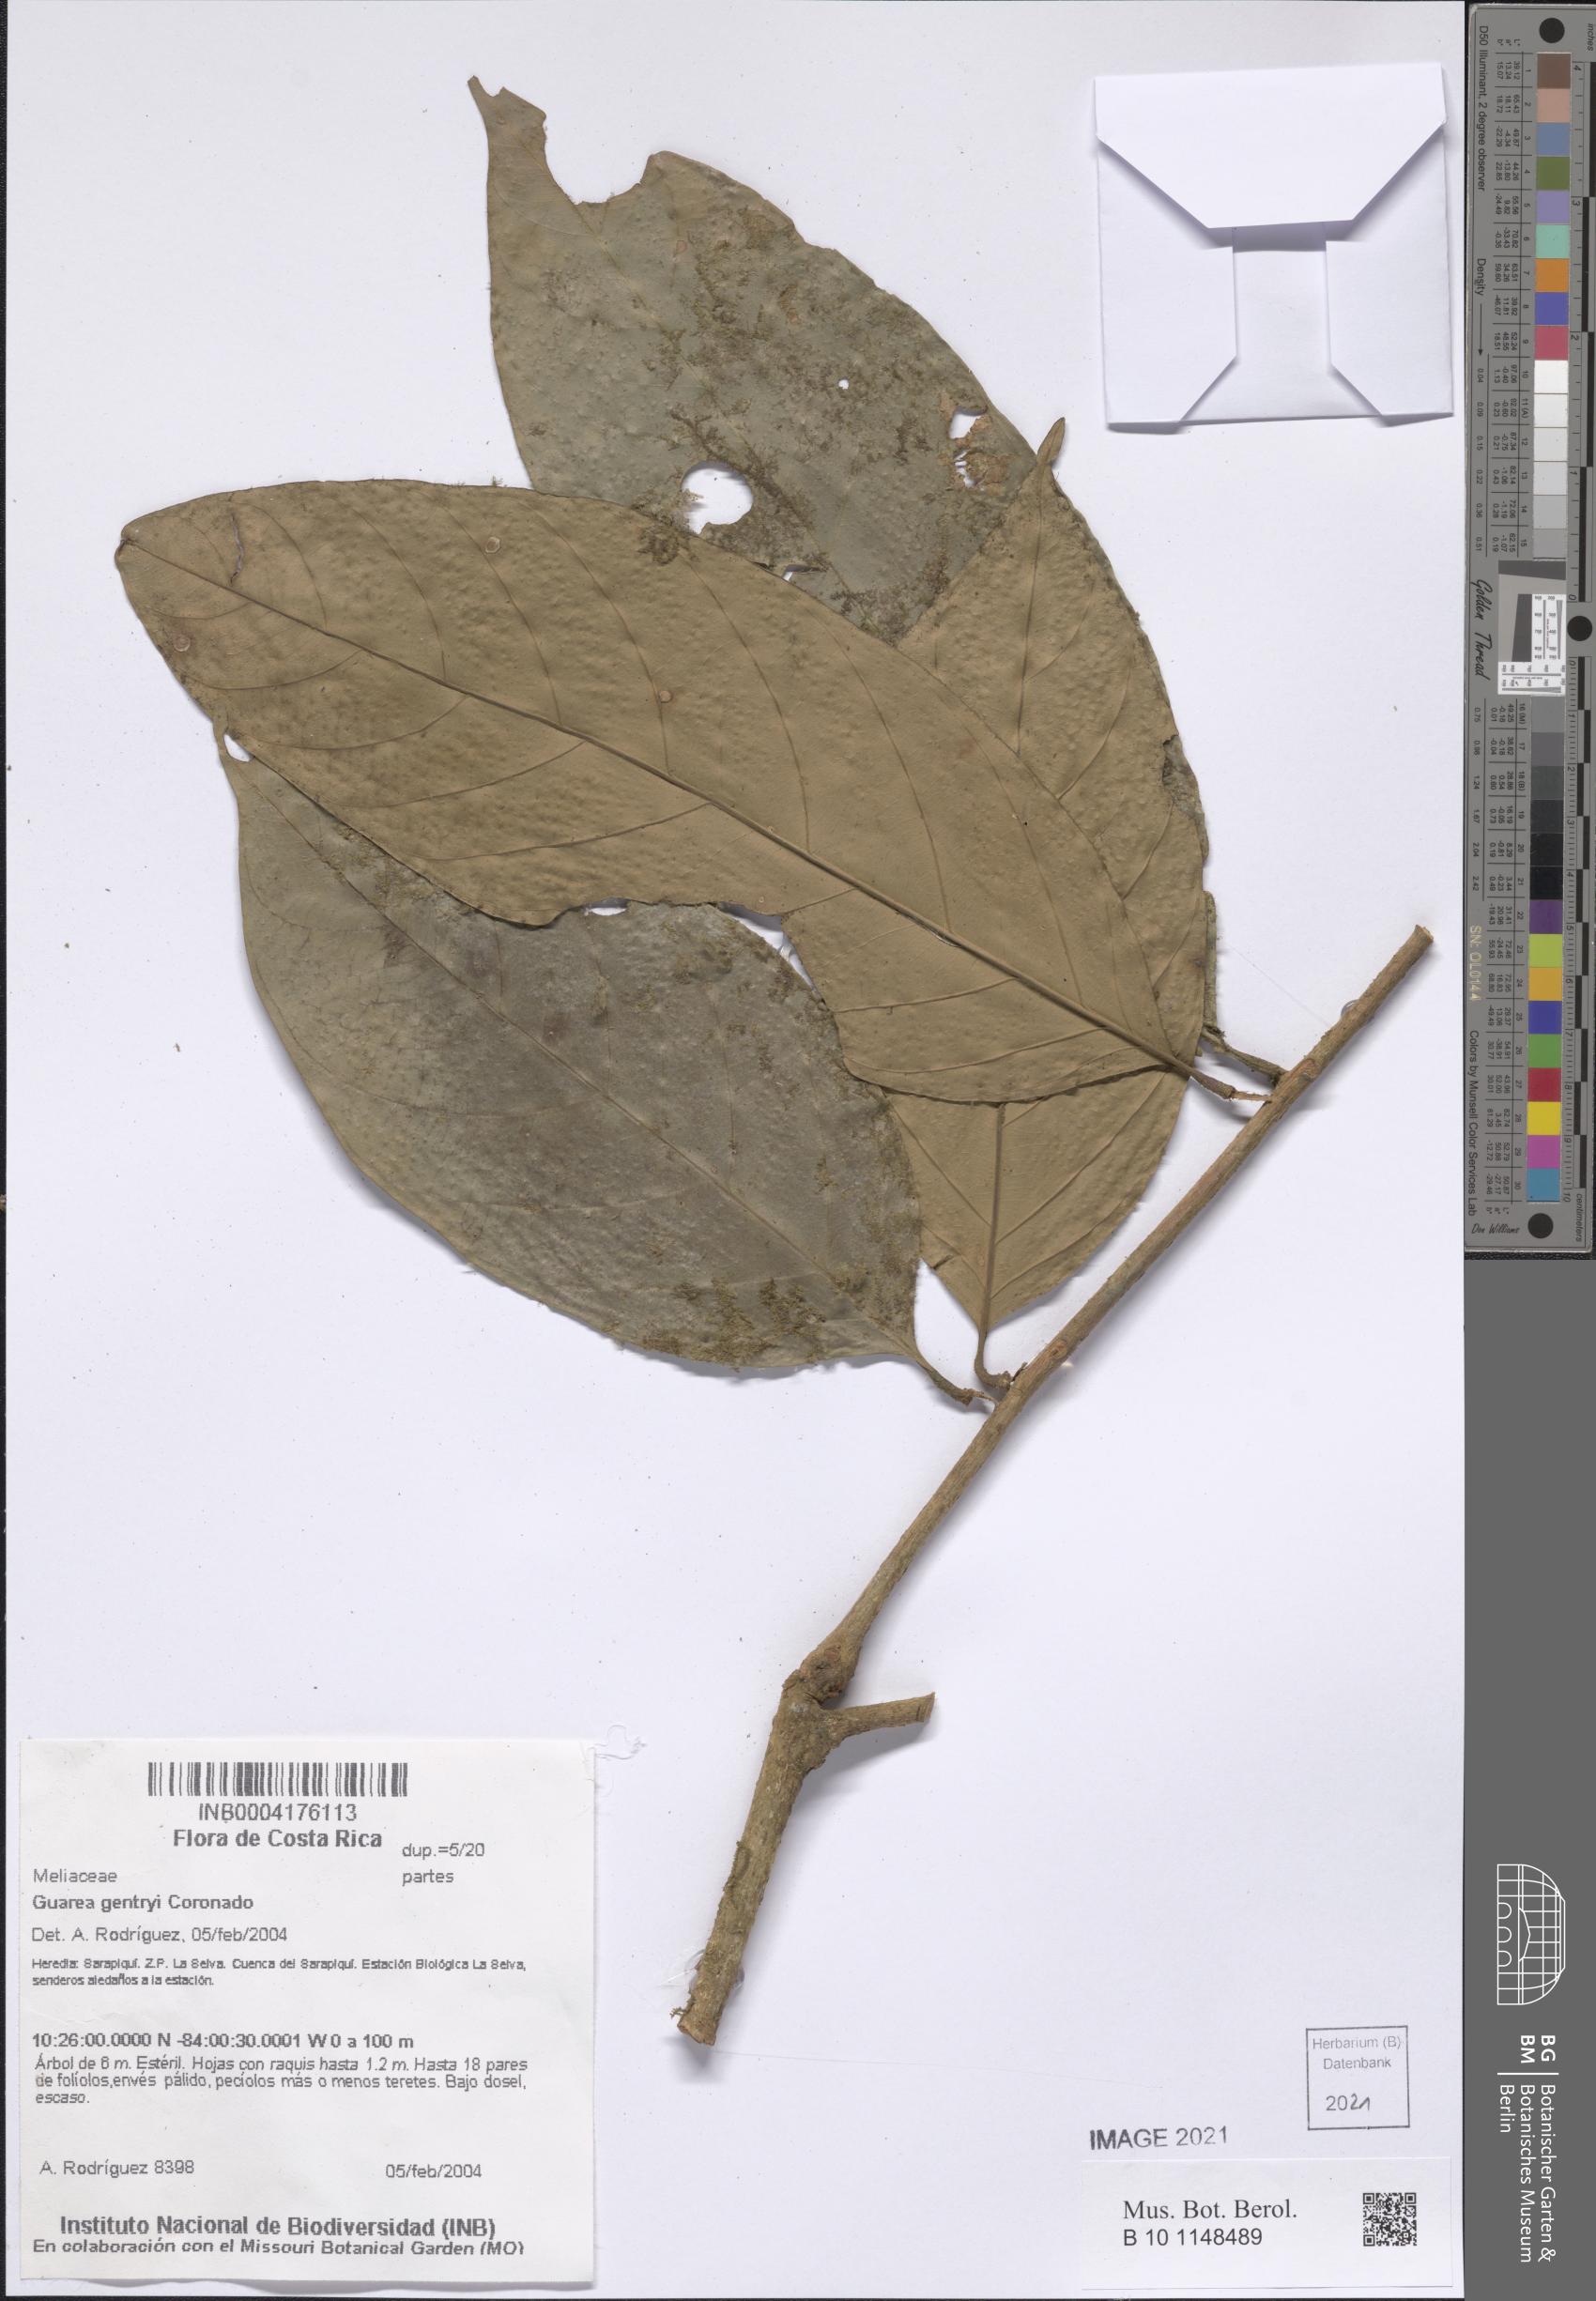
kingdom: Plantae
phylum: Tracheophyta
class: Magnoliopsida
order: Sapindales
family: Meliaceae
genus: Guarea
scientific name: Guarea gentryi
